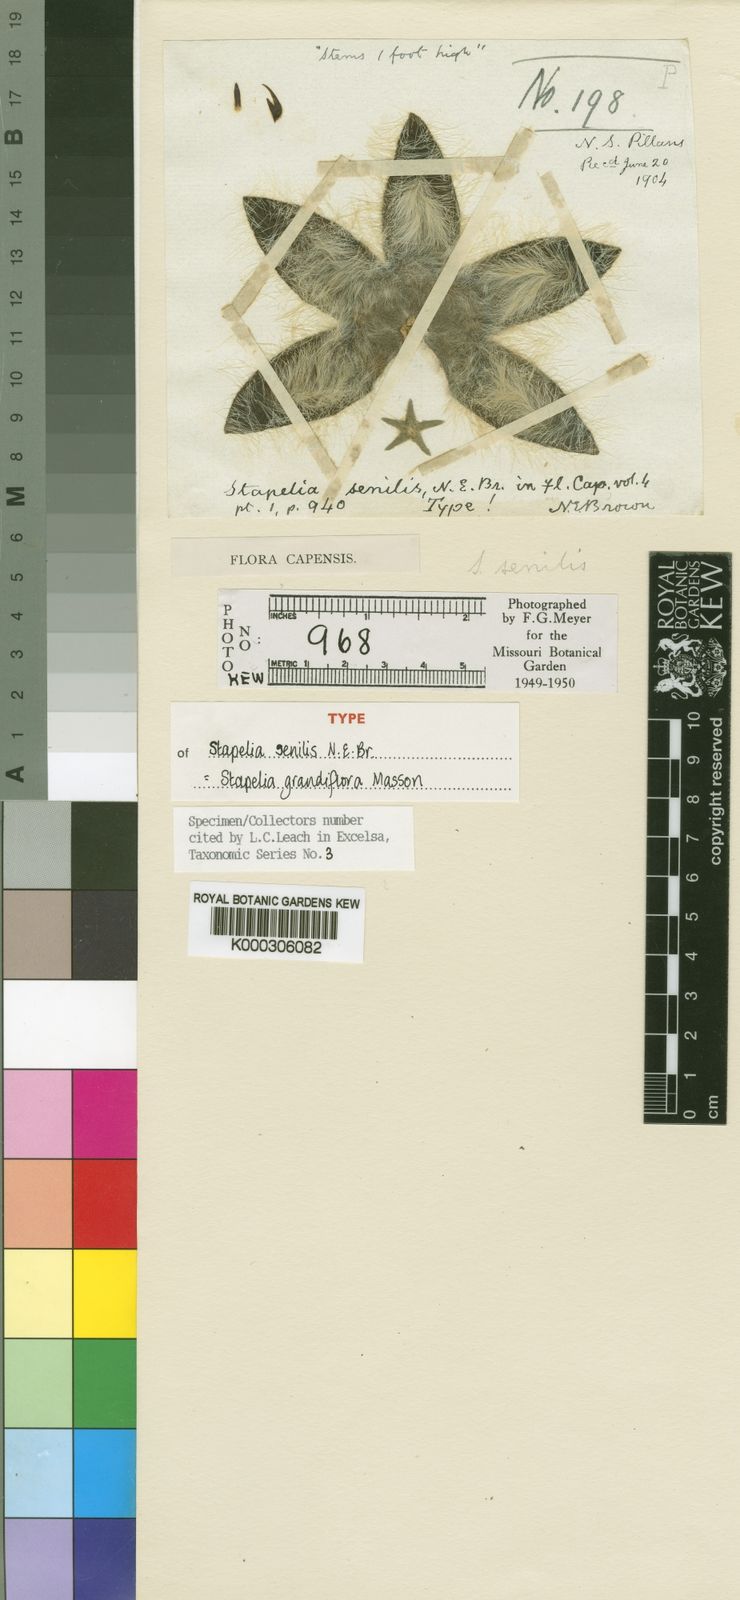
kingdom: Plantae
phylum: Tracheophyta
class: Magnoliopsida
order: Gentianales
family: Apocynaceae
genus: Ceropegia
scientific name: Ceropegia grandiflora
